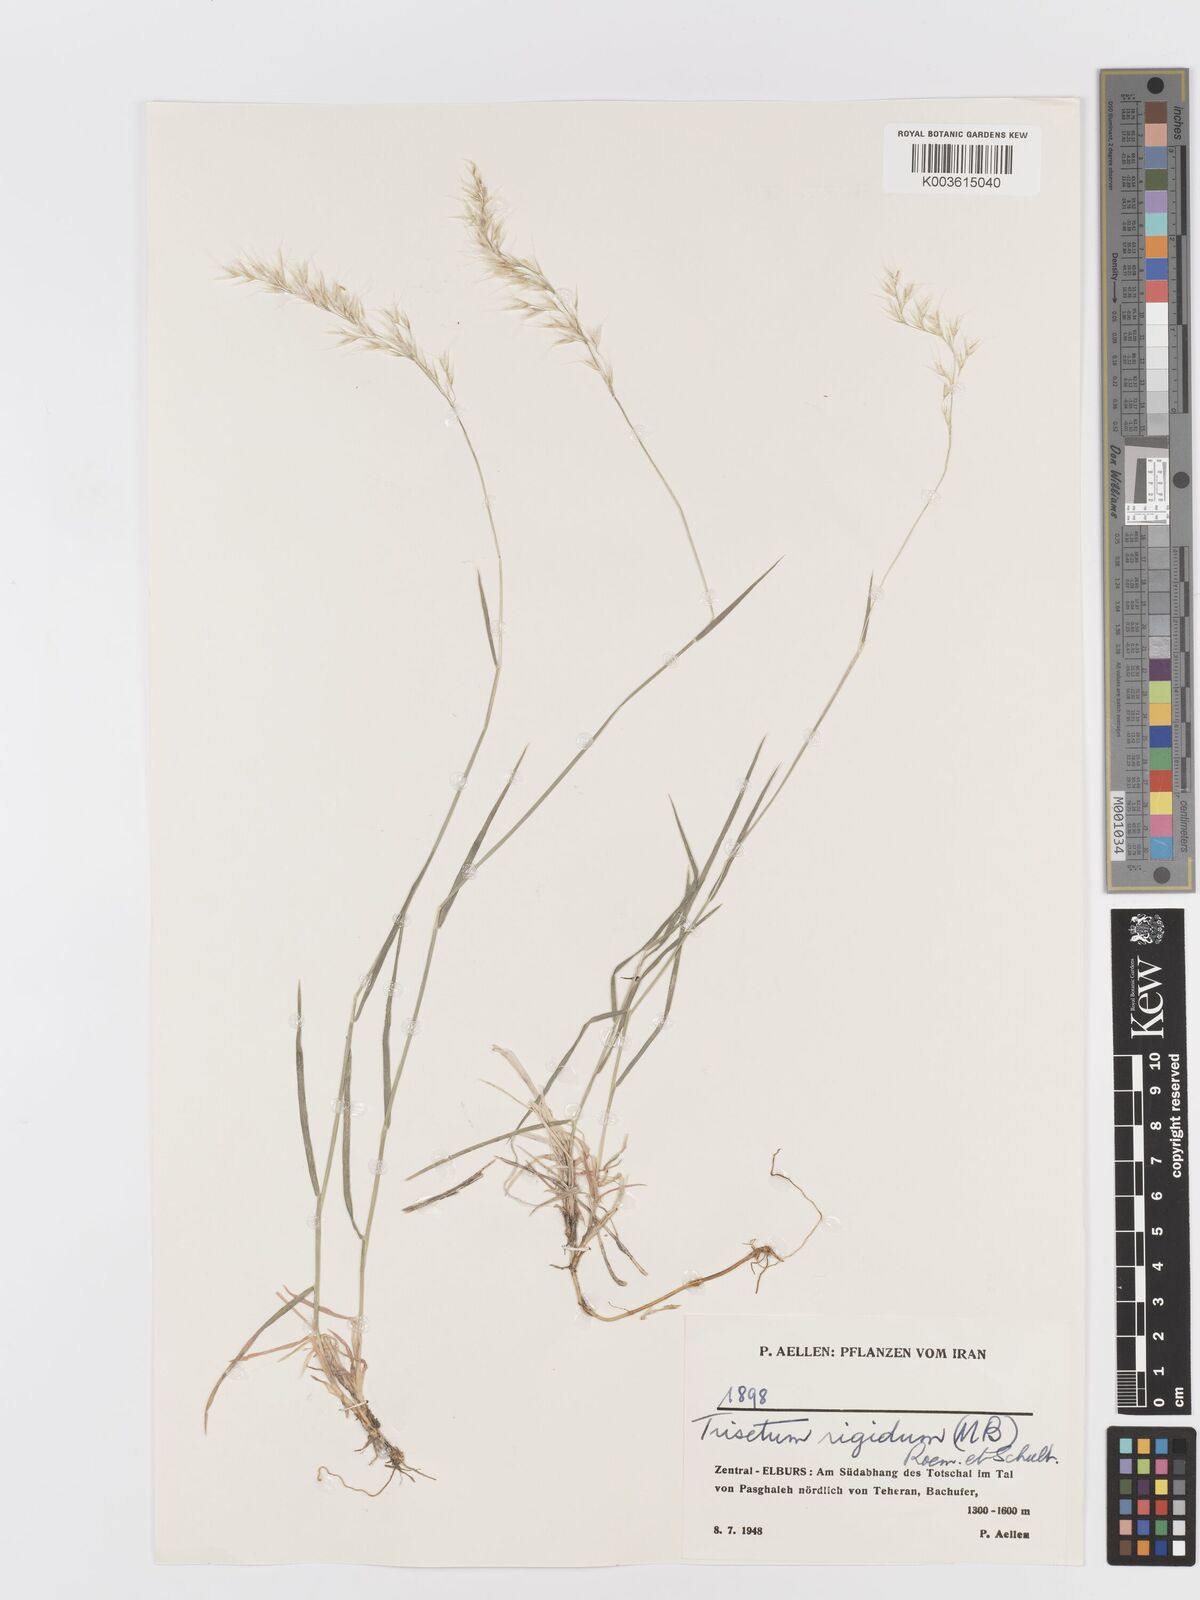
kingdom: Plantae
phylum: Tracheophyta
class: Liliopsida
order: Poales
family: Poaceae
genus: Trisetum
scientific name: Trisetum rigidum
